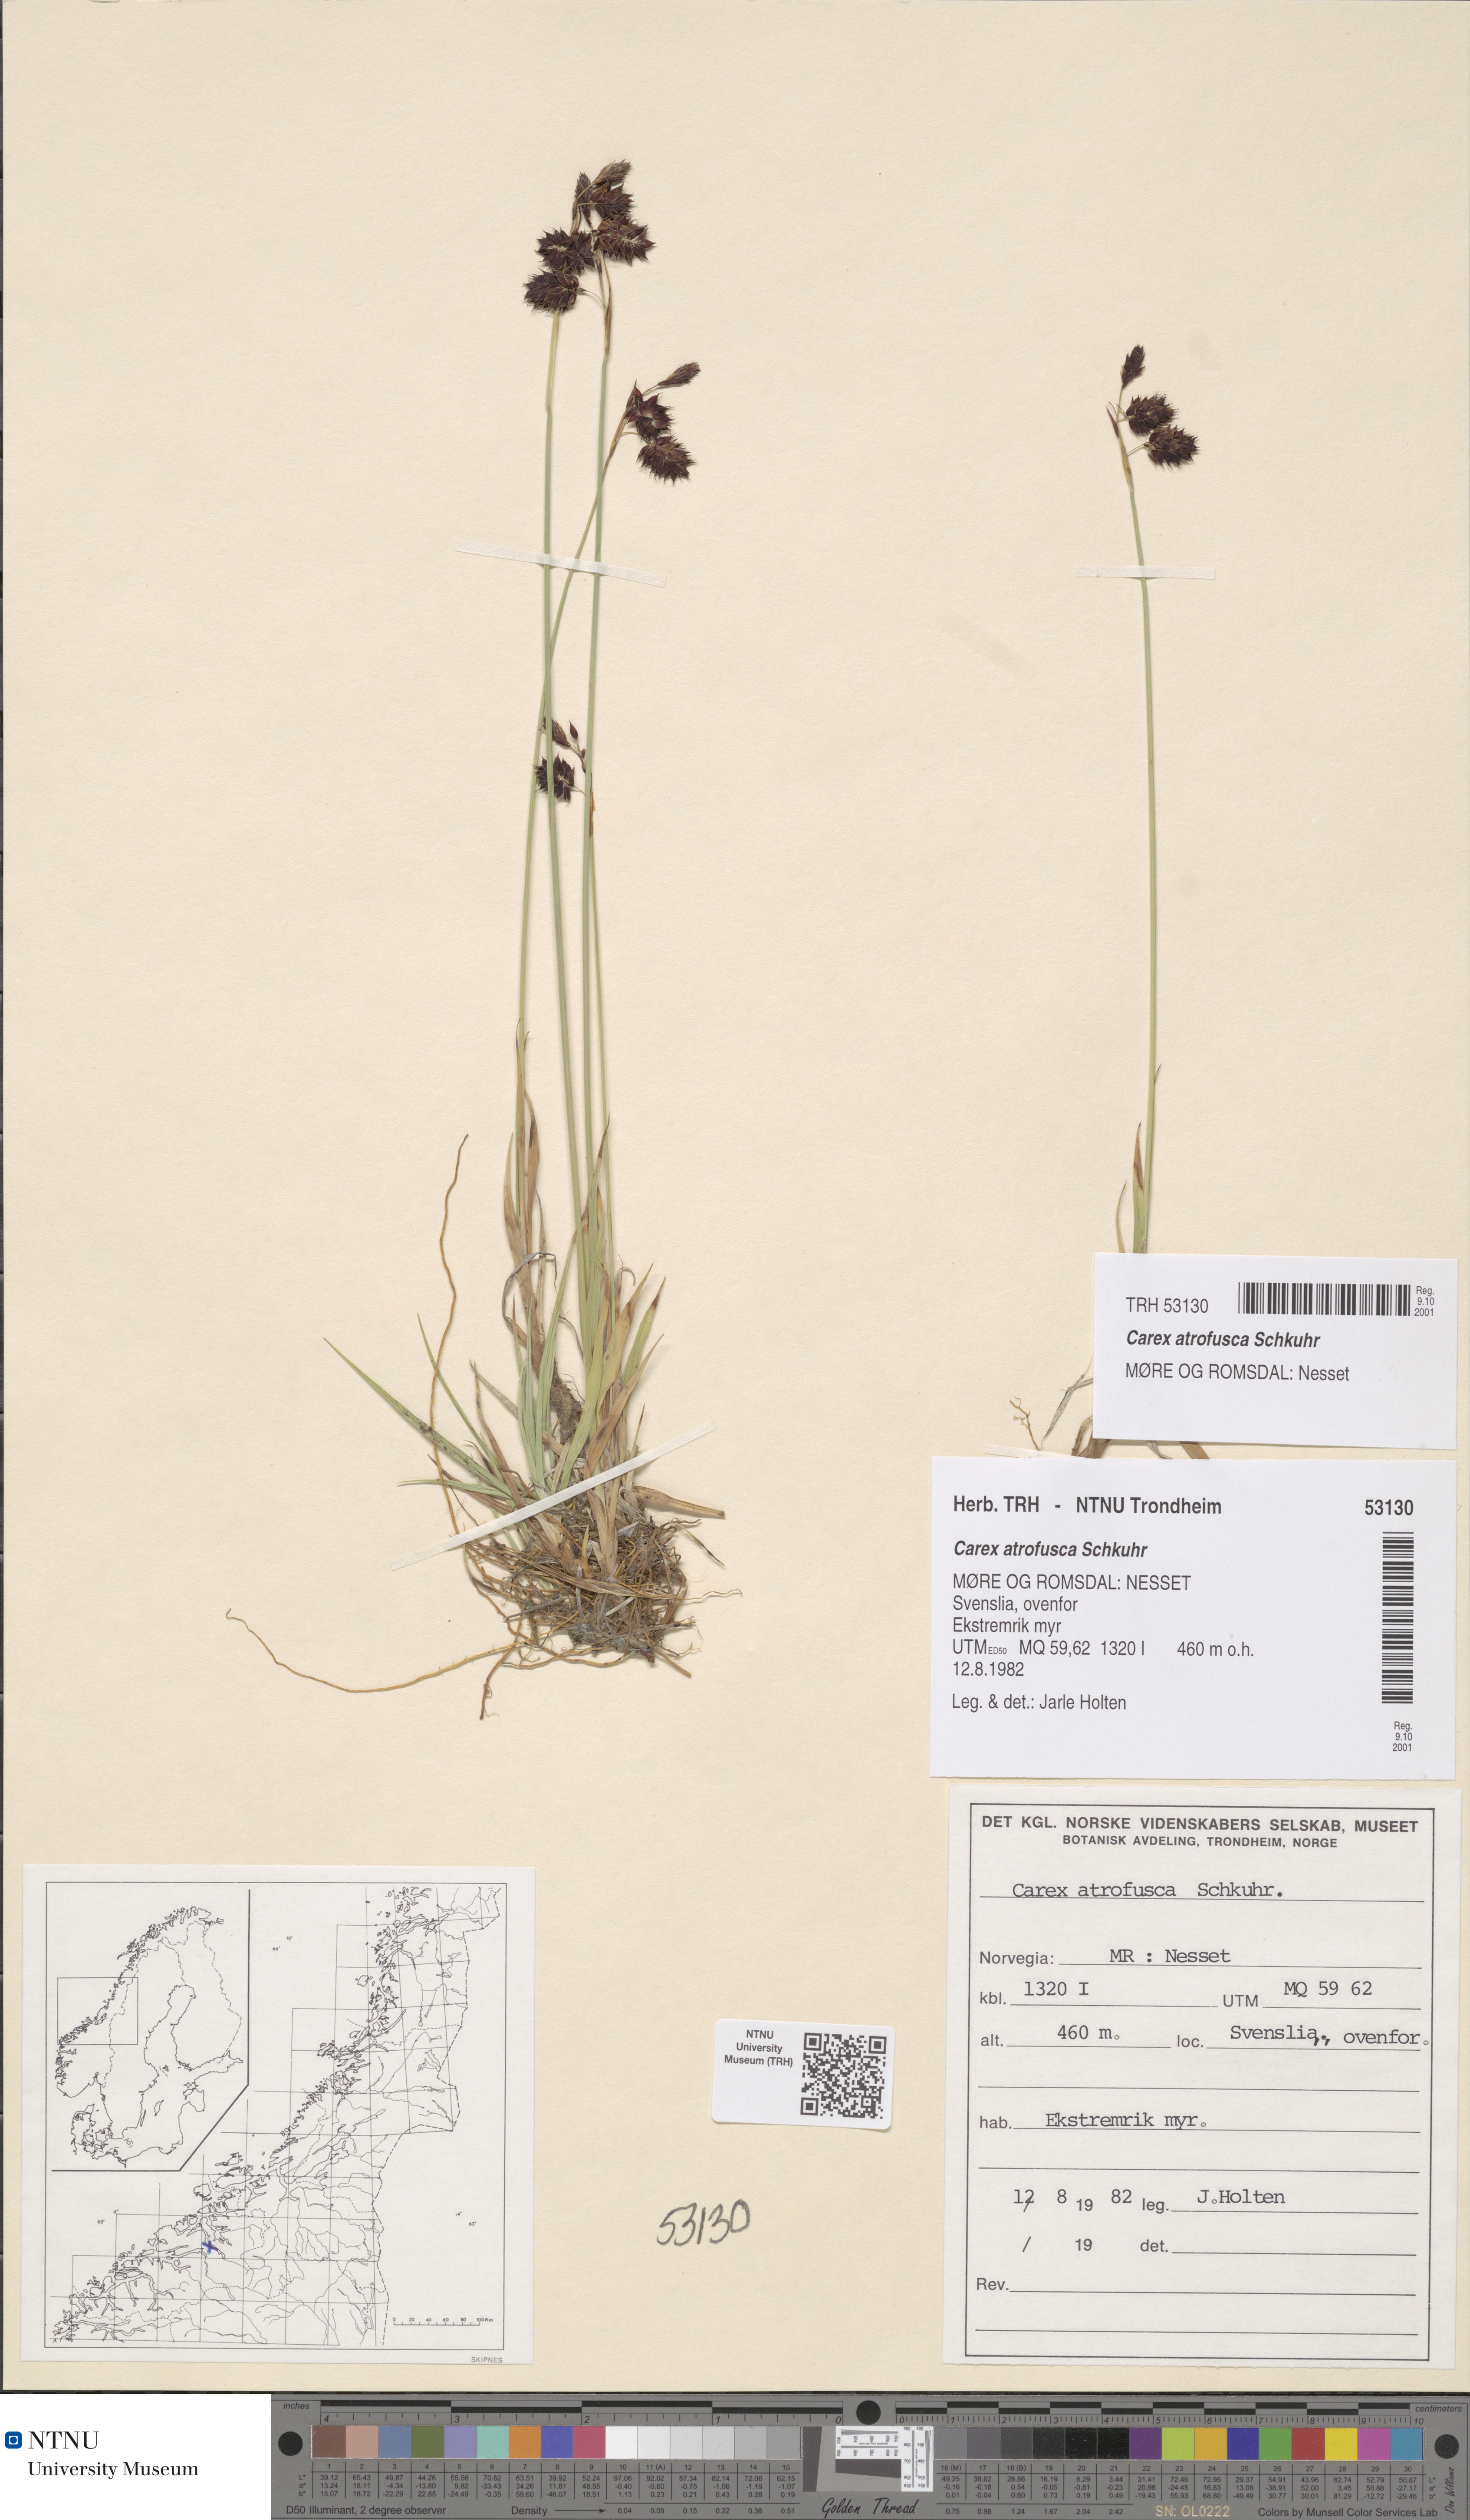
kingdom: Plantae
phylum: Tracheophyta
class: Liliopsida
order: Poales
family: Cyperaceae
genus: Carex
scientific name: Carex atrofusca
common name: Scorched alpine-sedge
